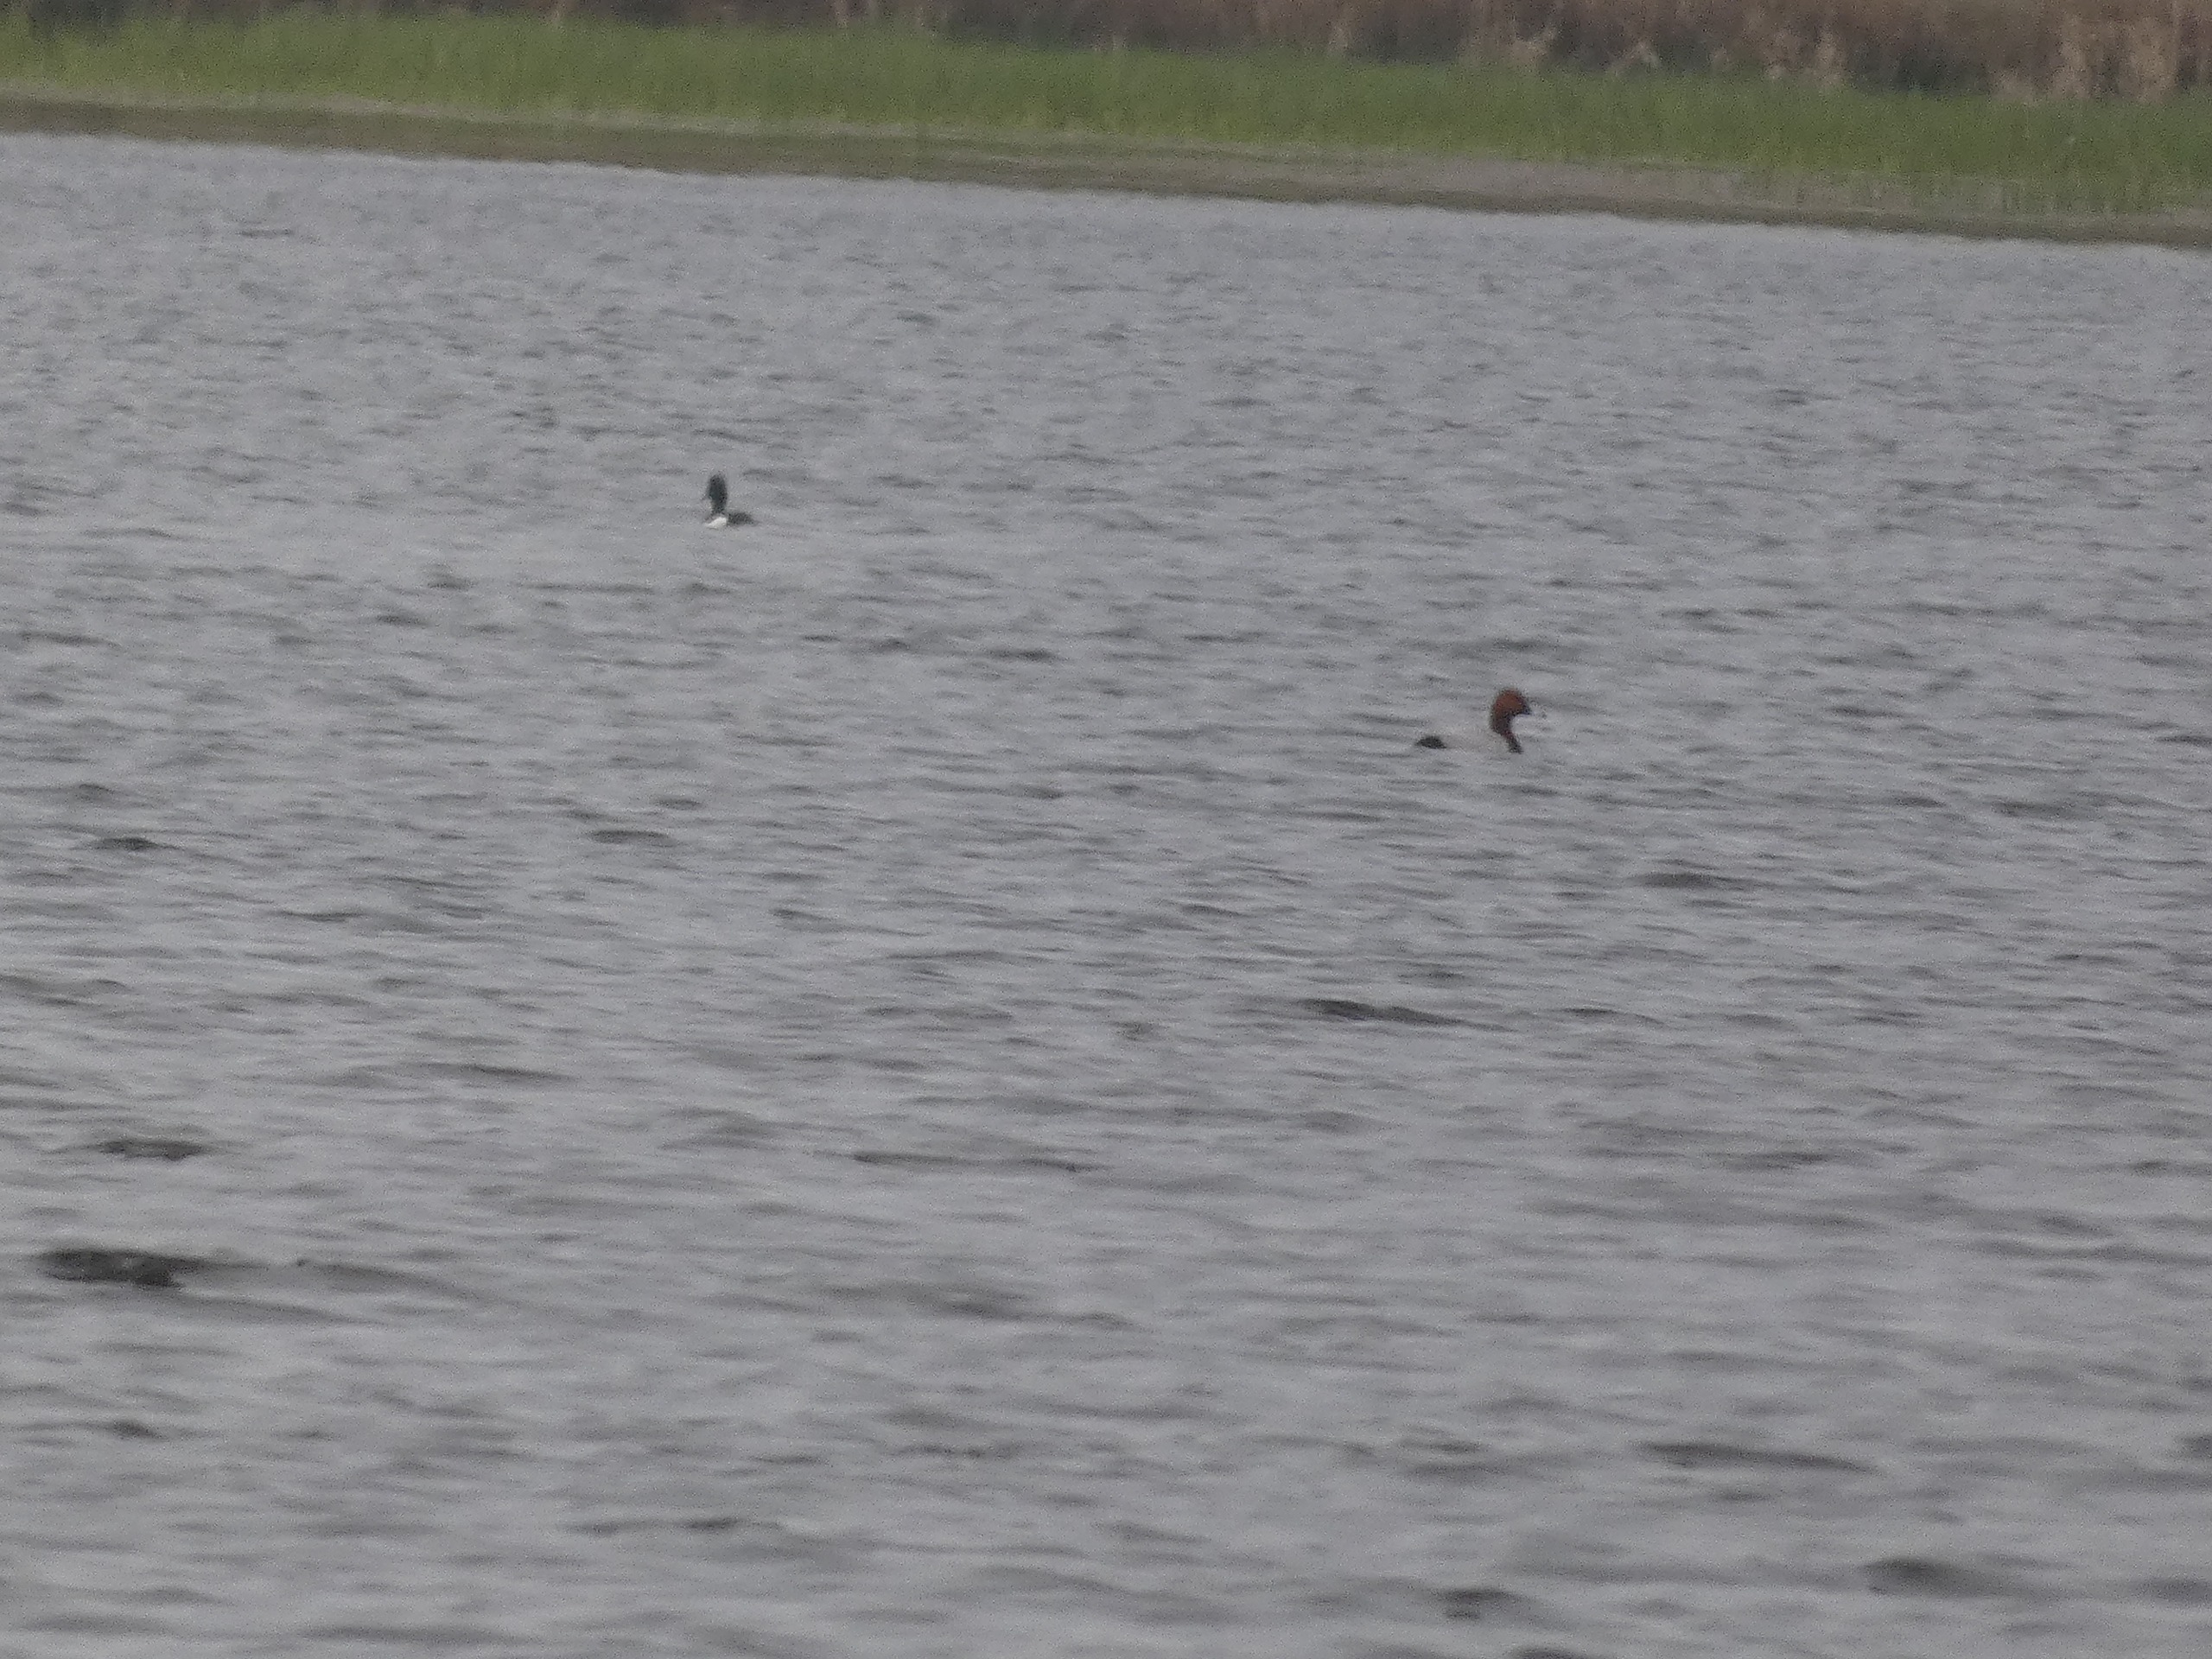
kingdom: Animalia
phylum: Chordata
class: Aves
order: Anseriformes
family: Anatidae
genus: Aythya
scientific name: Aythya ferina
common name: Taffeland
